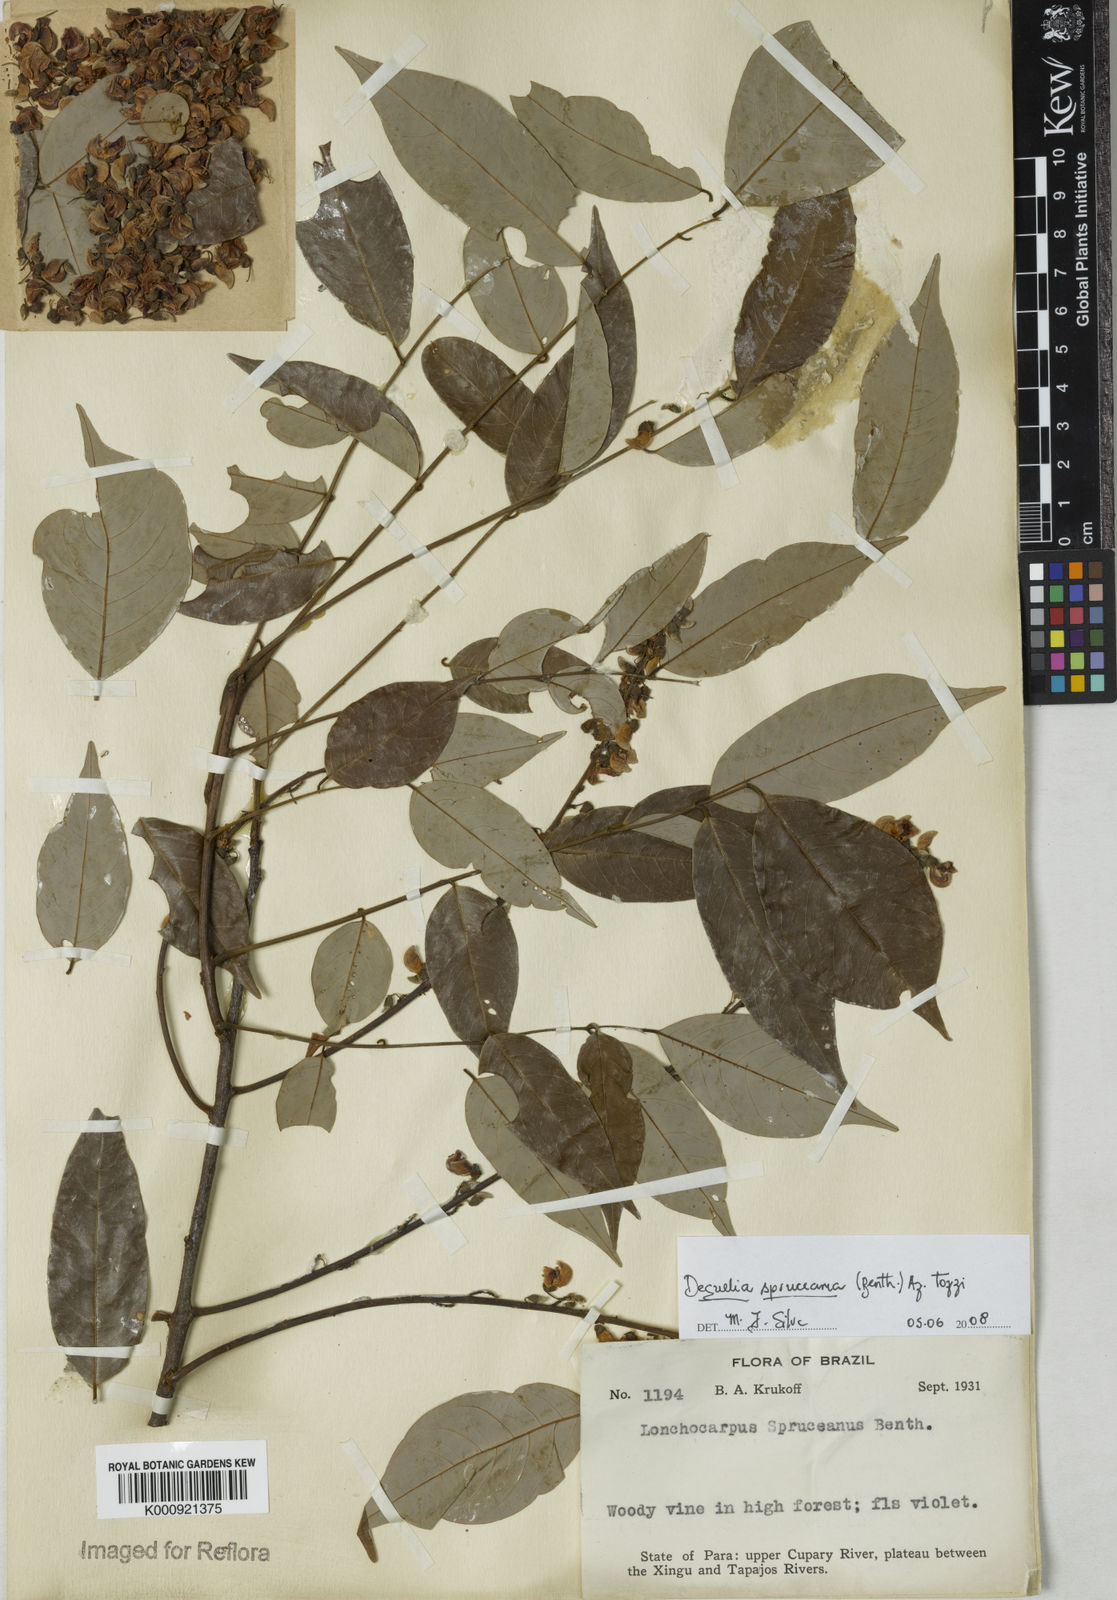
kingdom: Plantae
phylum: Tracheophyta
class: Magnoliopsida
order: Fabales
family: Fabaceae
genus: Deguelia
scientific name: Deguelia spruceana
